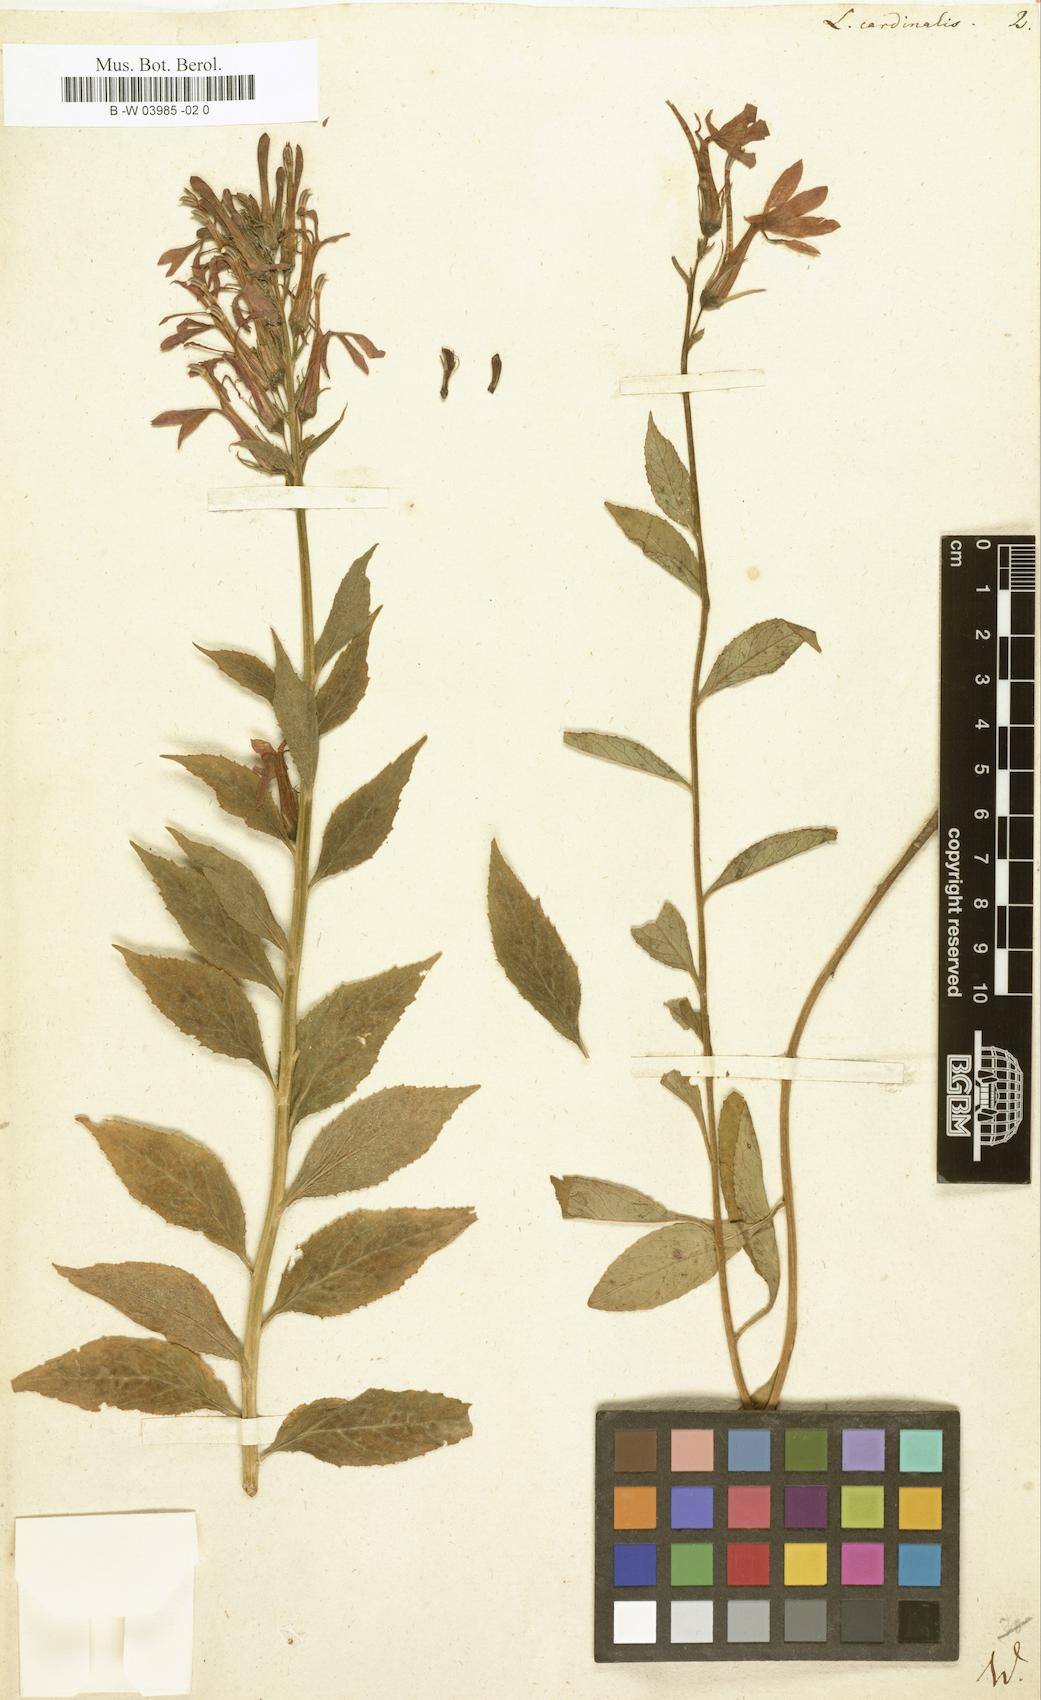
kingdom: Plantae
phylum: Tracheophyta
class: Magnoliopsida
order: Asterales
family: Campanulaceae
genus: Lobelia
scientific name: Lobelia cardinalis
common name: Cardinal flower
